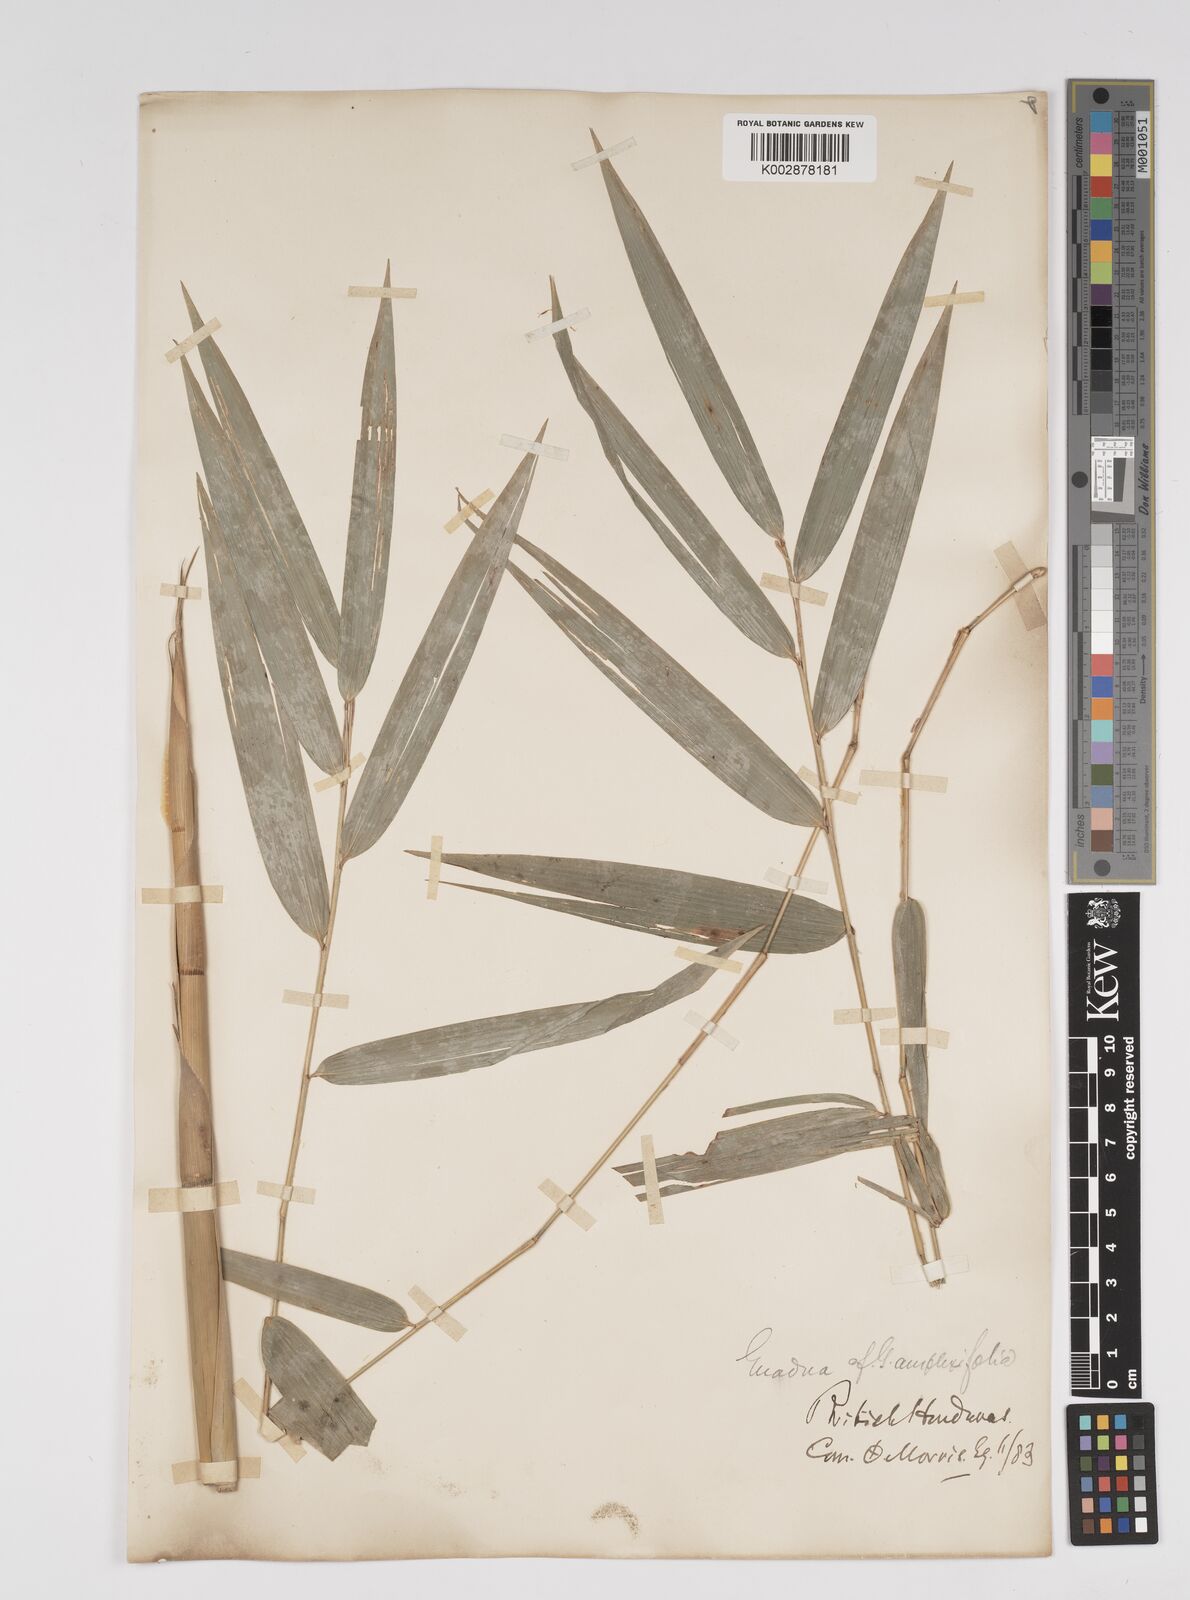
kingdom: Plantae
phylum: Tracheophyta
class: Liliopsida
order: Poales
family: Poaceae
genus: Guadua
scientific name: Guadua amplexifolia
